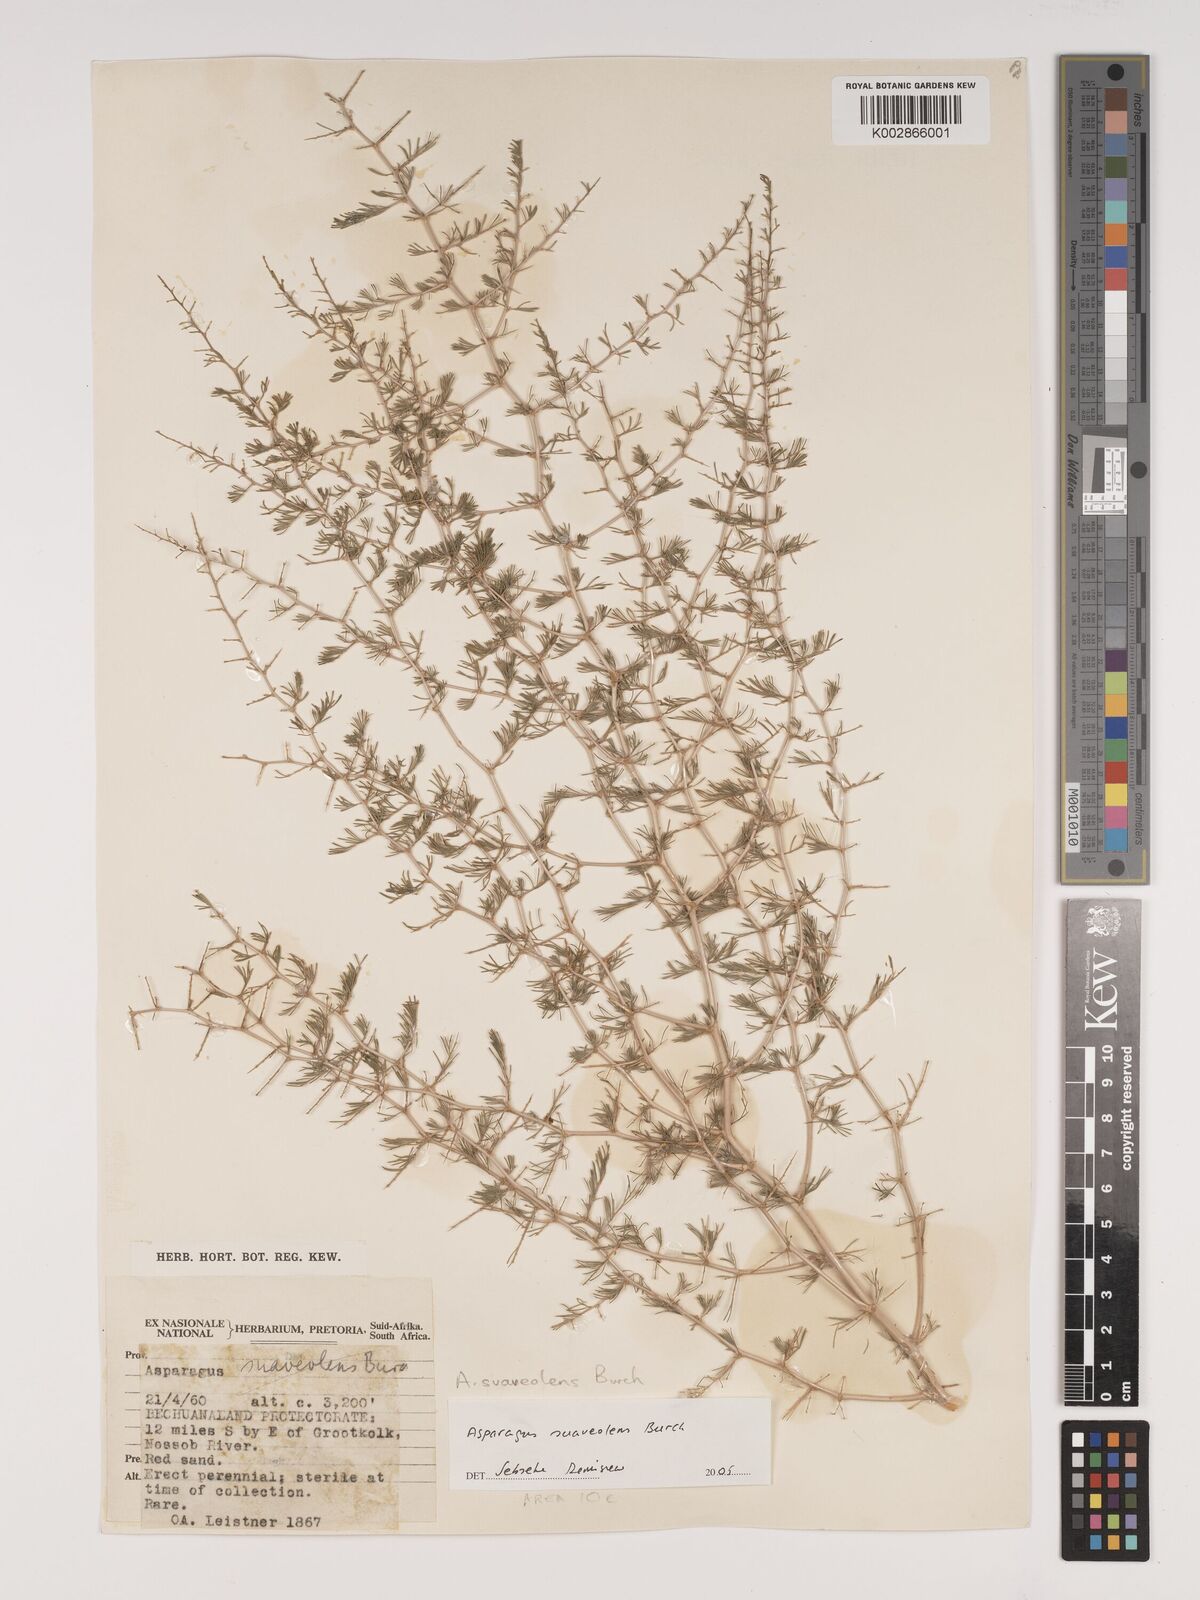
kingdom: Plantae
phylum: Tracheophyta
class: Liliopsida
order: Asparagales
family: Asparagaceae
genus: Asparagus
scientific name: Asparagus suaveolens
